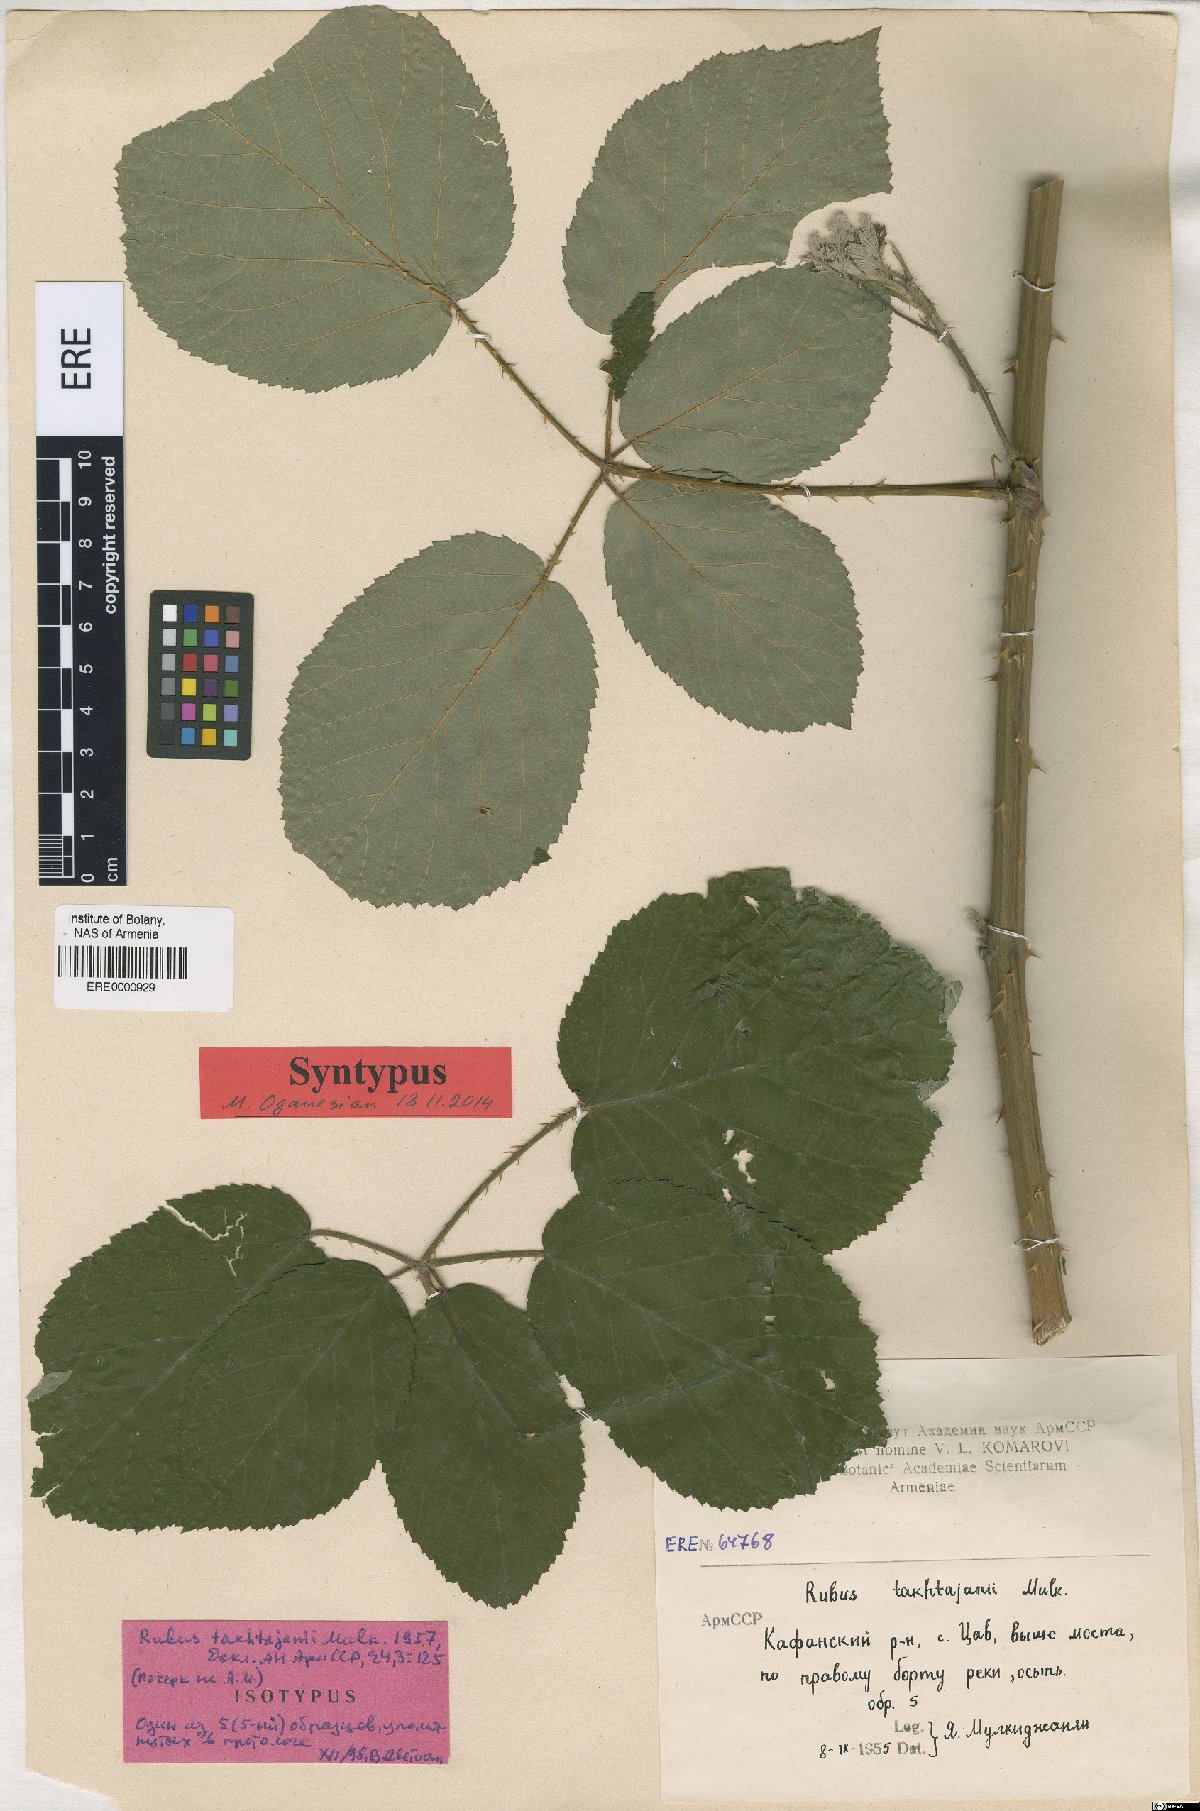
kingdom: Plantae
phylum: Tracheophyta
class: Magnoliopsida
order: Rosales
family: Rosaceae
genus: Rubus
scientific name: Rubus takhtadjanii
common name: Takhtadjan's blackberry
